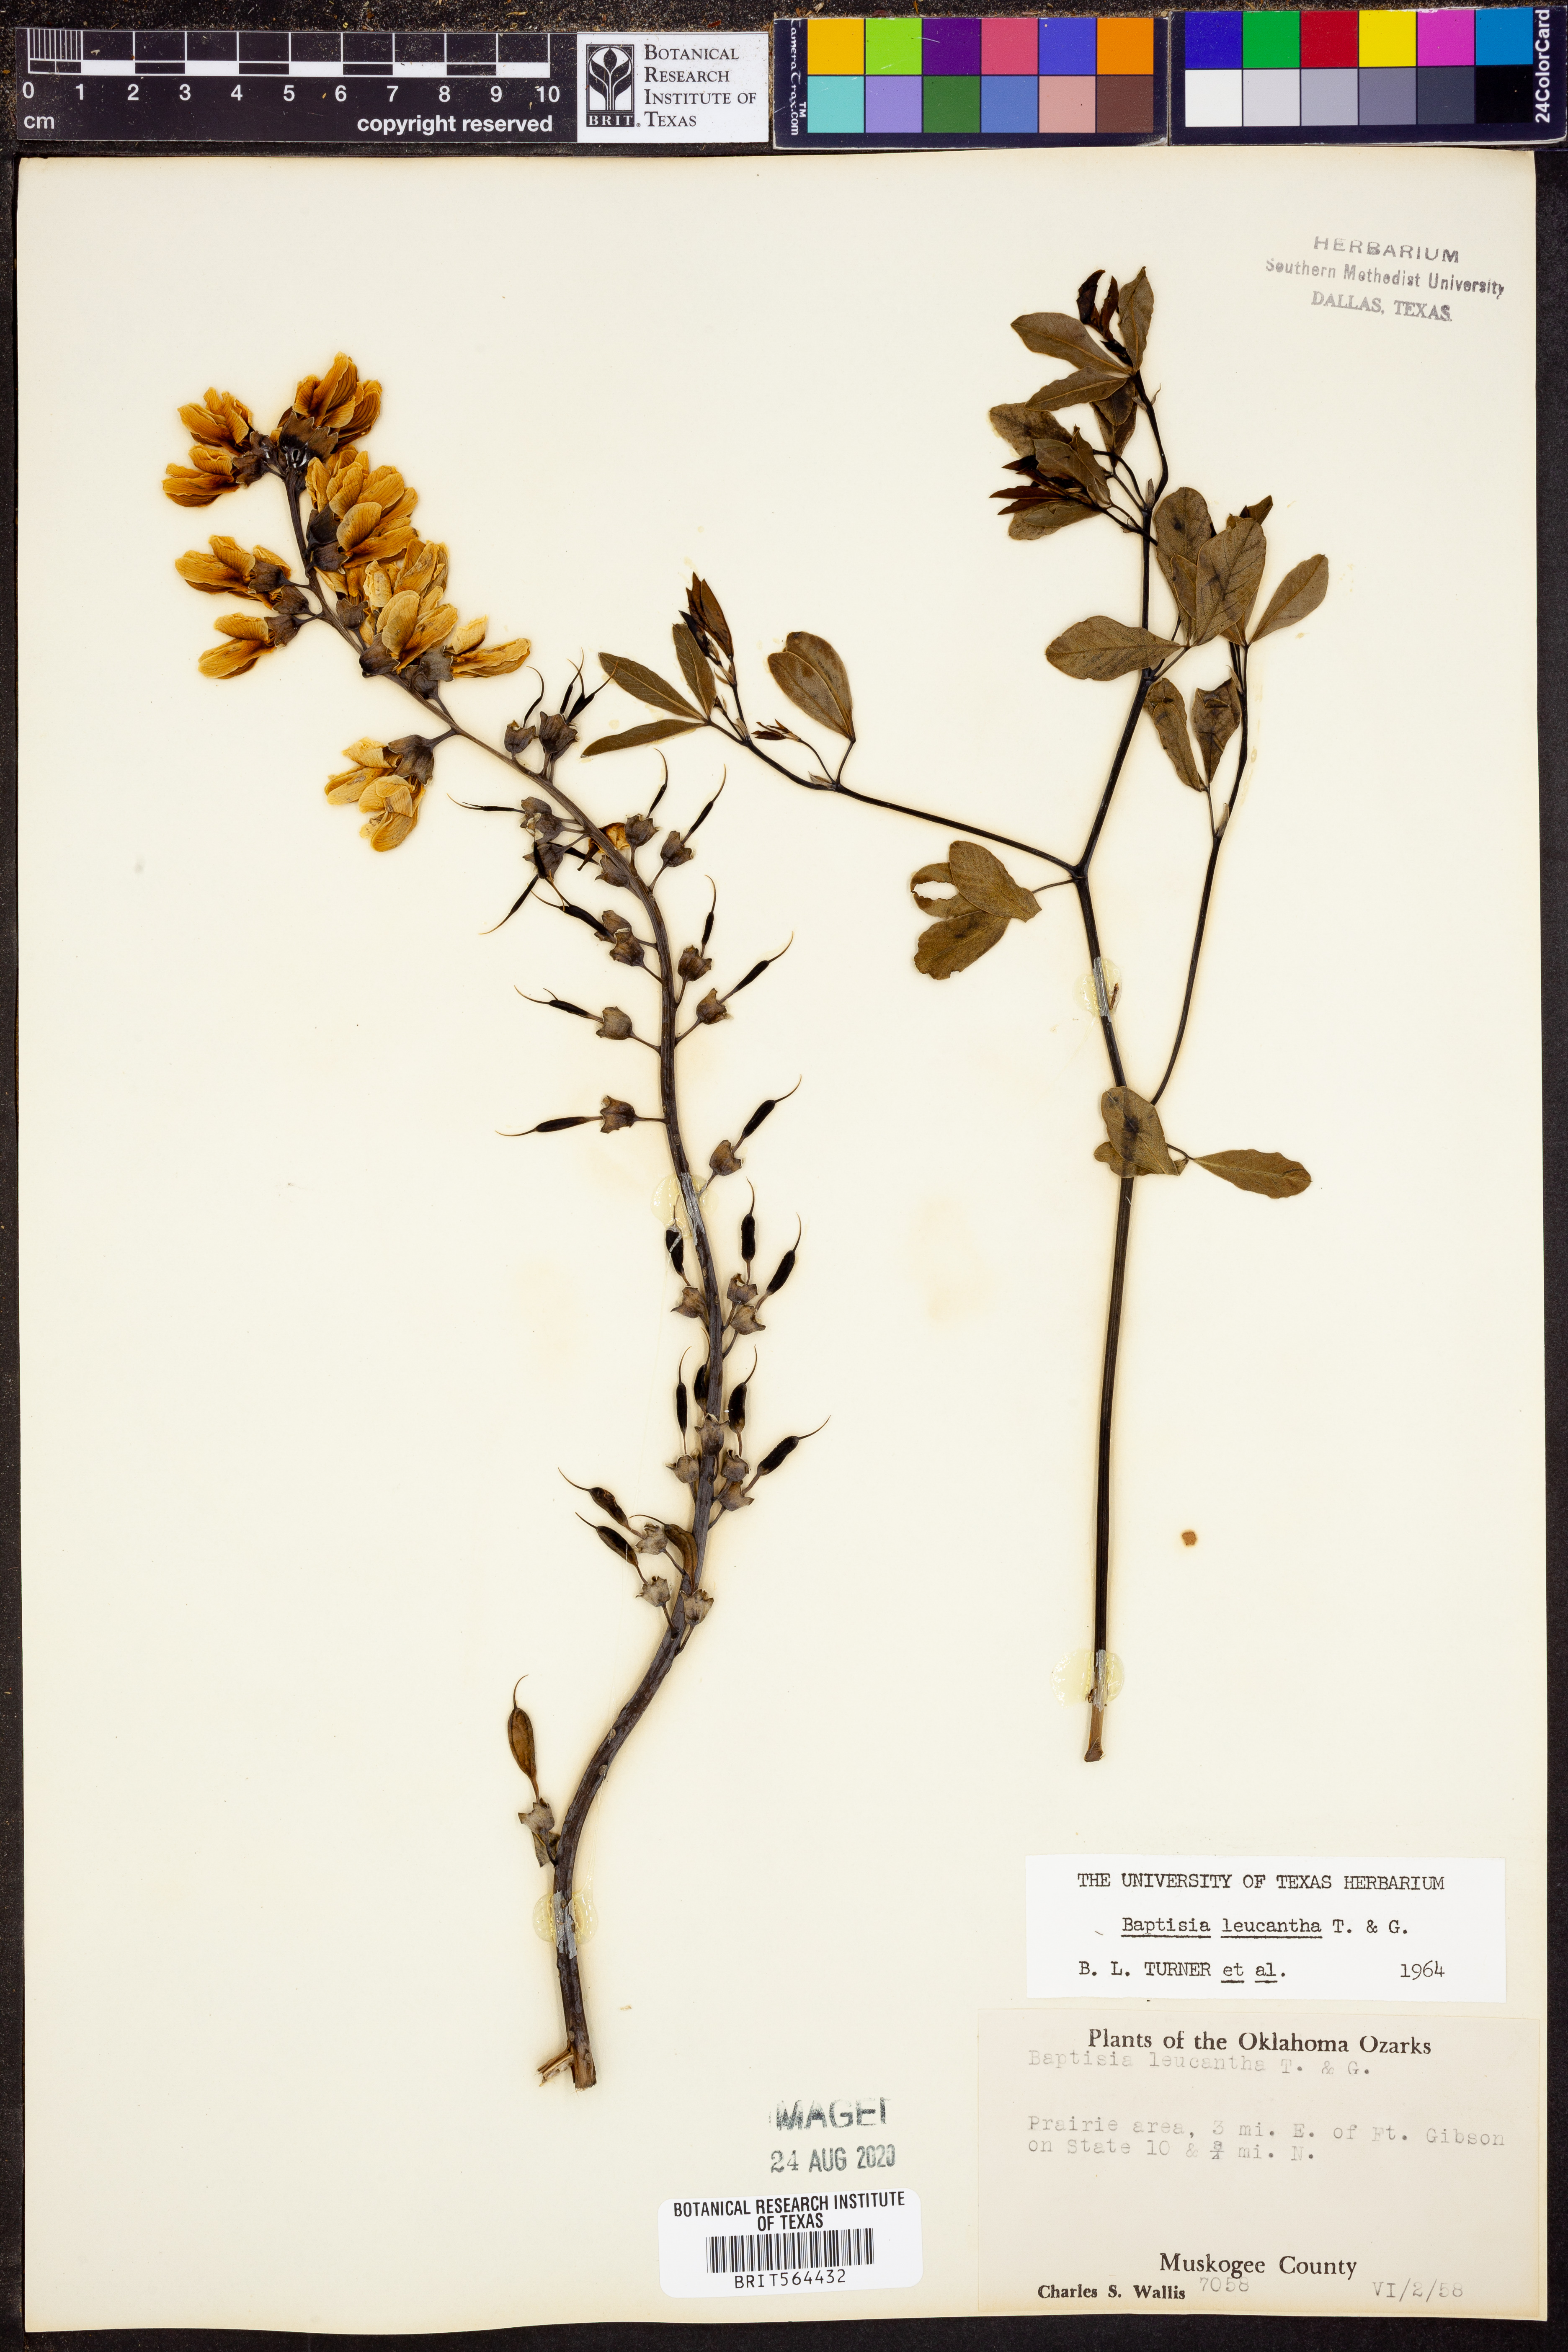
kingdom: Plantae
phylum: Tracheophyta
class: Magnoliopsida
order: Fabales
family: Fabaceae
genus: Baptisia
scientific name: Baptisia alba
